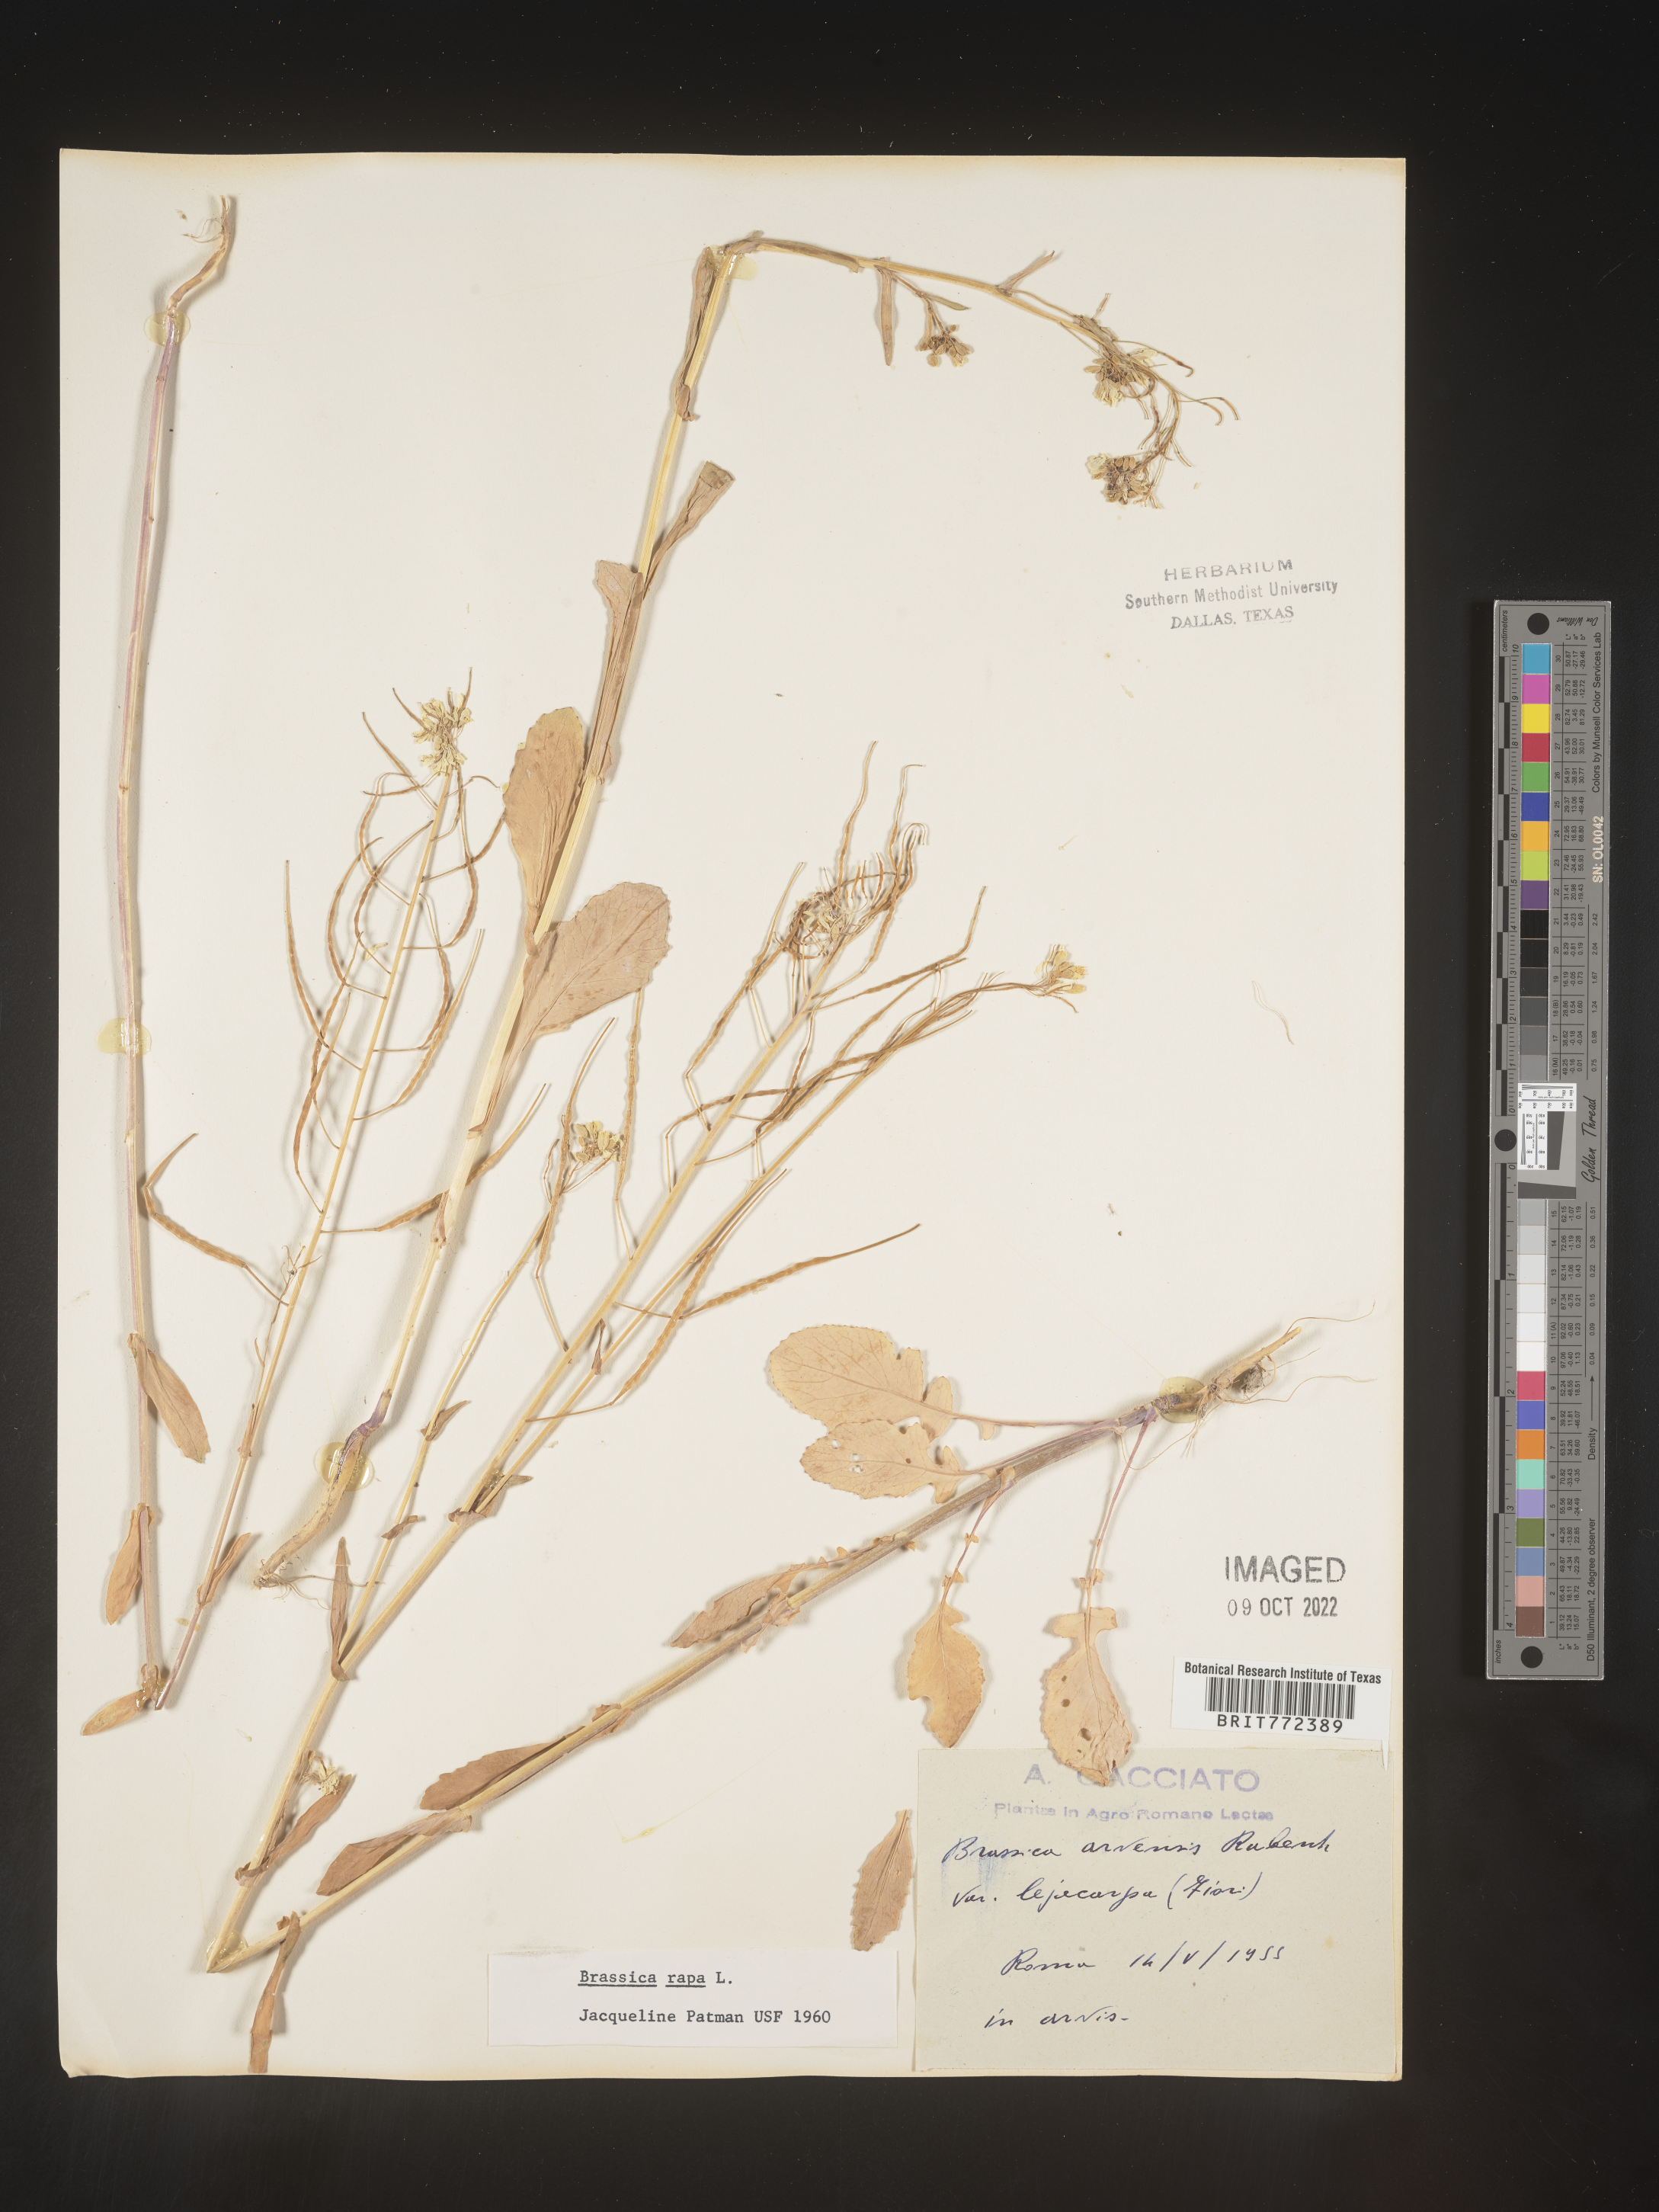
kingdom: Plantae
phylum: Tracheophyta
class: Magnoliopsida
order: Brassicales
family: Brassicaceae
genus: Brassica
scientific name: Brassica
